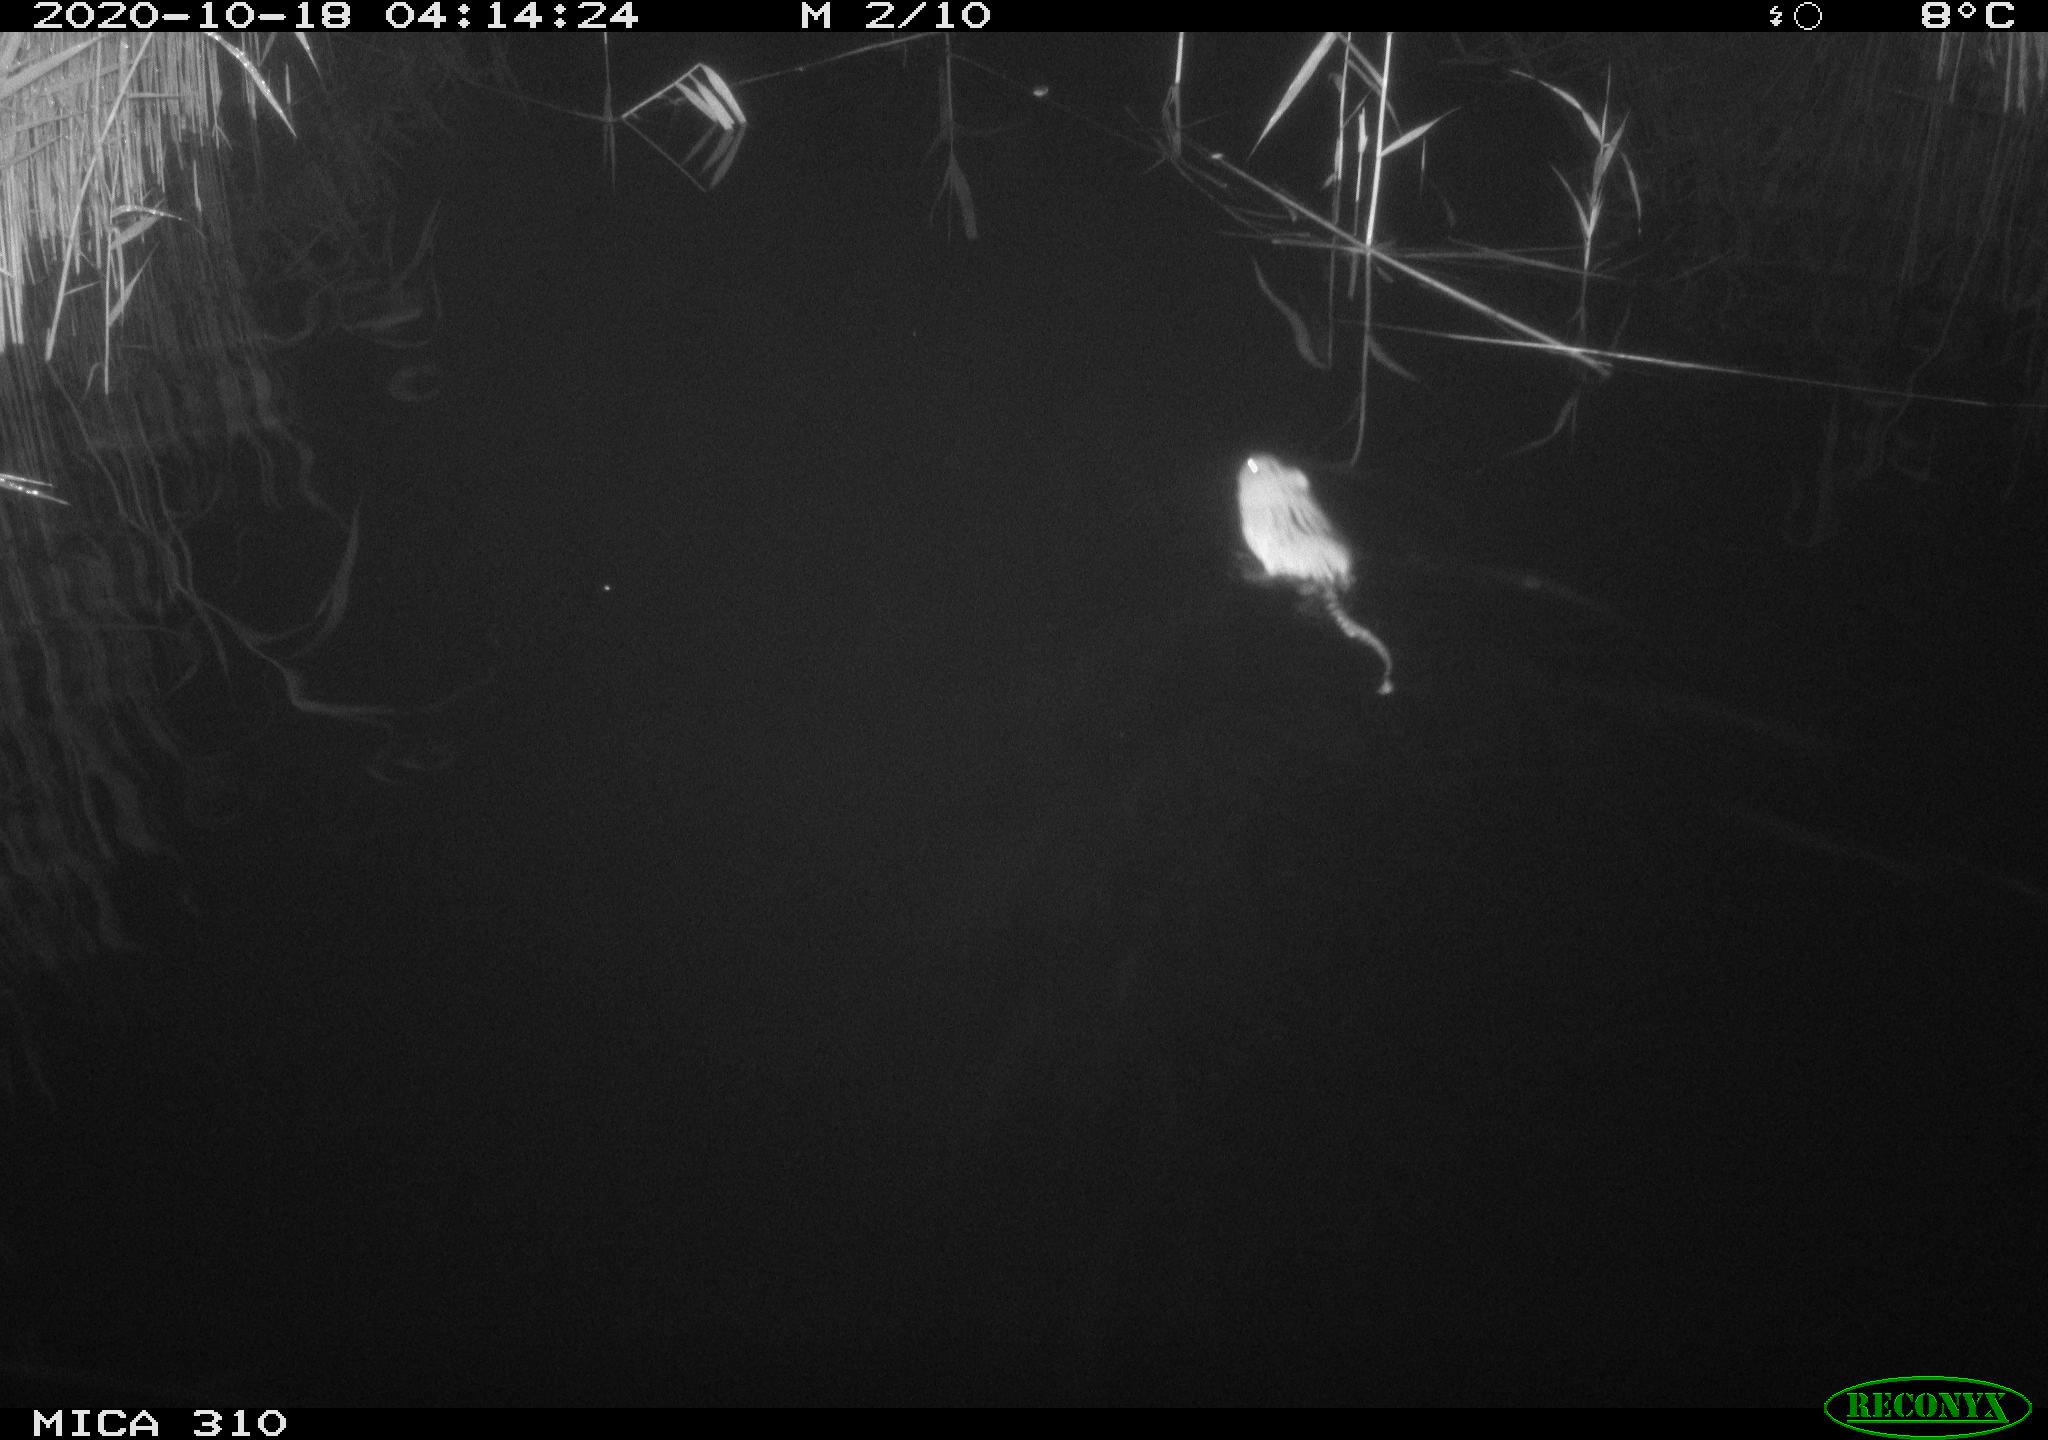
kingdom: Animalia
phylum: Chordata
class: Mammalia
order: Rodentia
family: Cricetidae
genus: Ondatra
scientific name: Ondatra zibethicus
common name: Muskrat
